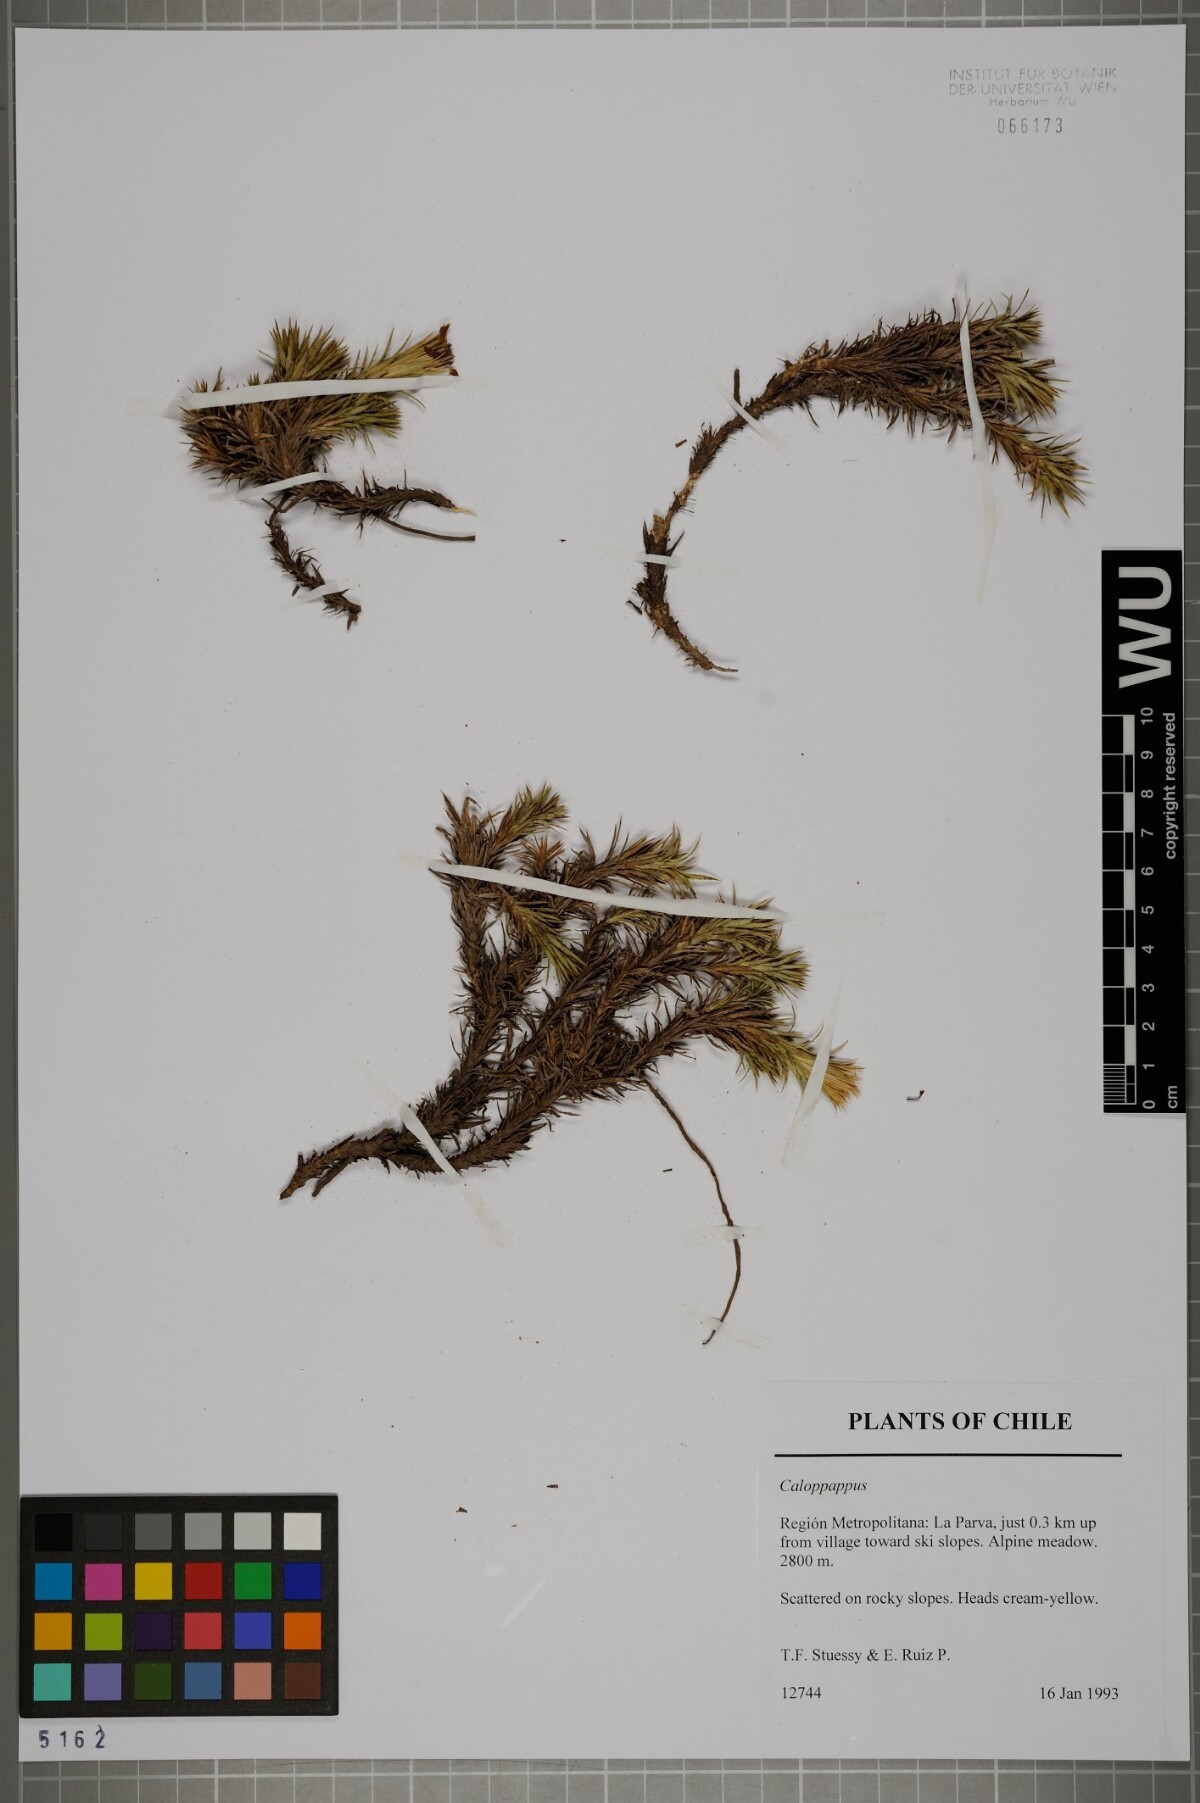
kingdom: Plantae
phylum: Tracheophyta
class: Magnoliopsida
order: Asterales
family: Asteraceae
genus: Nassauvia
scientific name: Nassauvia acerosa
